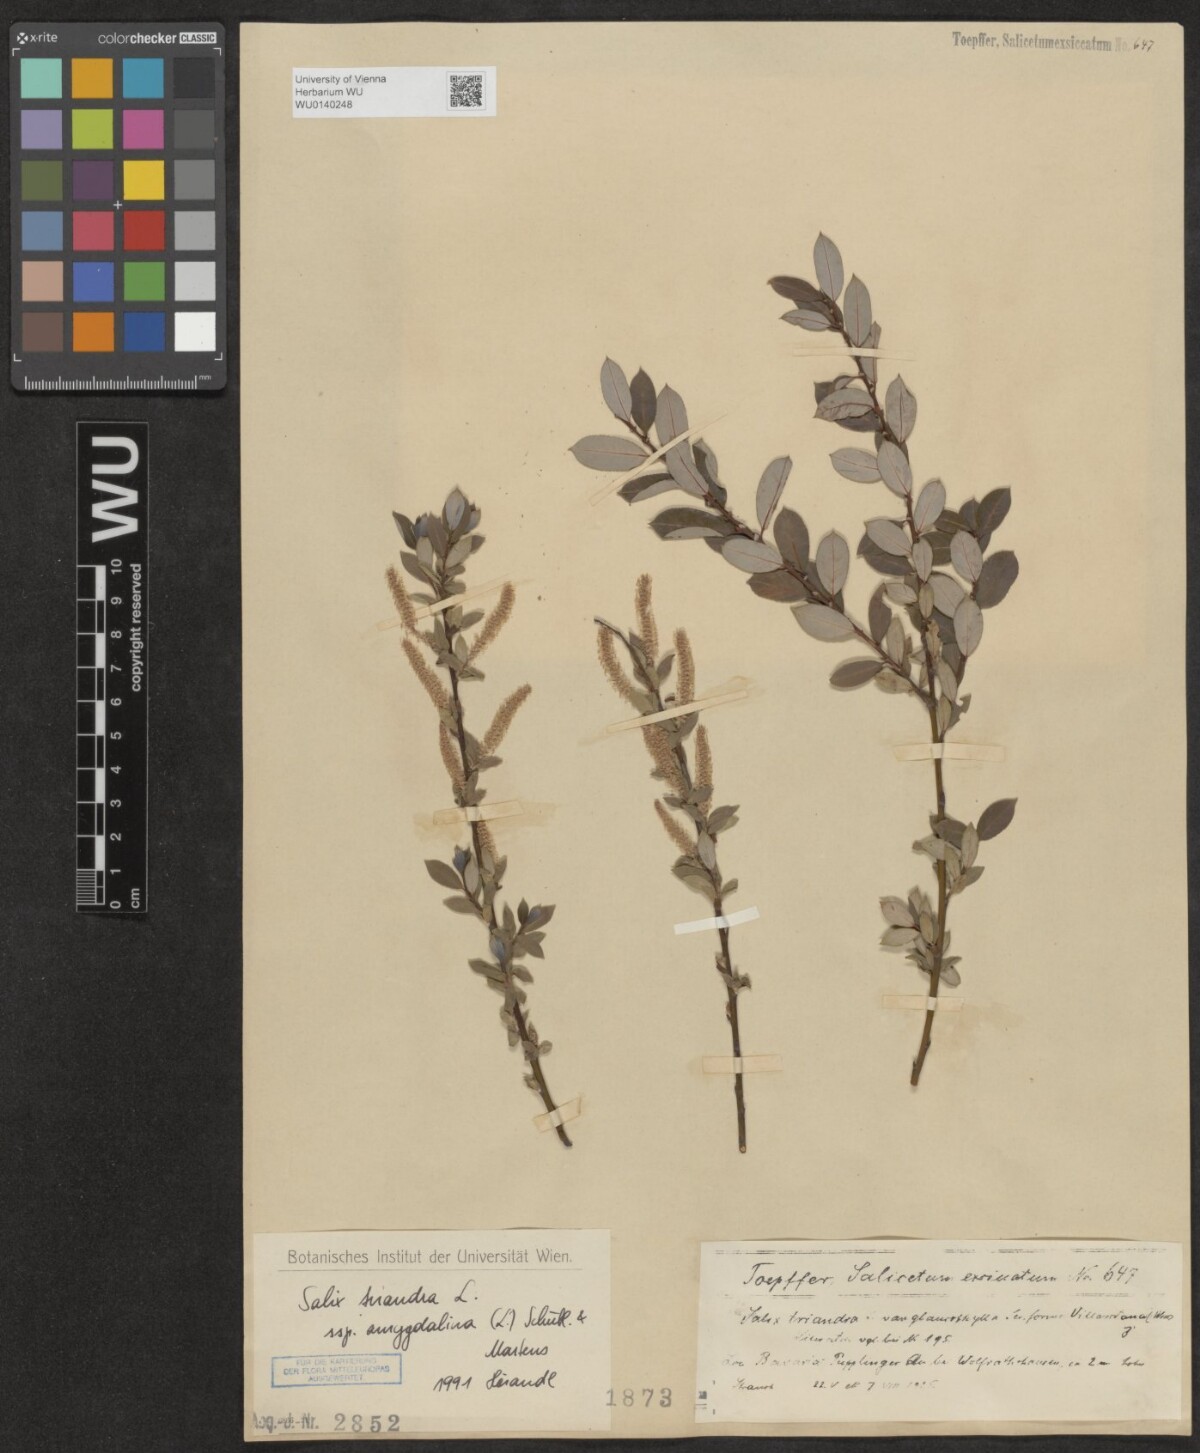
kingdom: Plantae
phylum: Tracheophyta
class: Magnoliopsida
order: Malpighiales
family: Salicaceae
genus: Salix
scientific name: Salix triandra
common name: Almond willow
